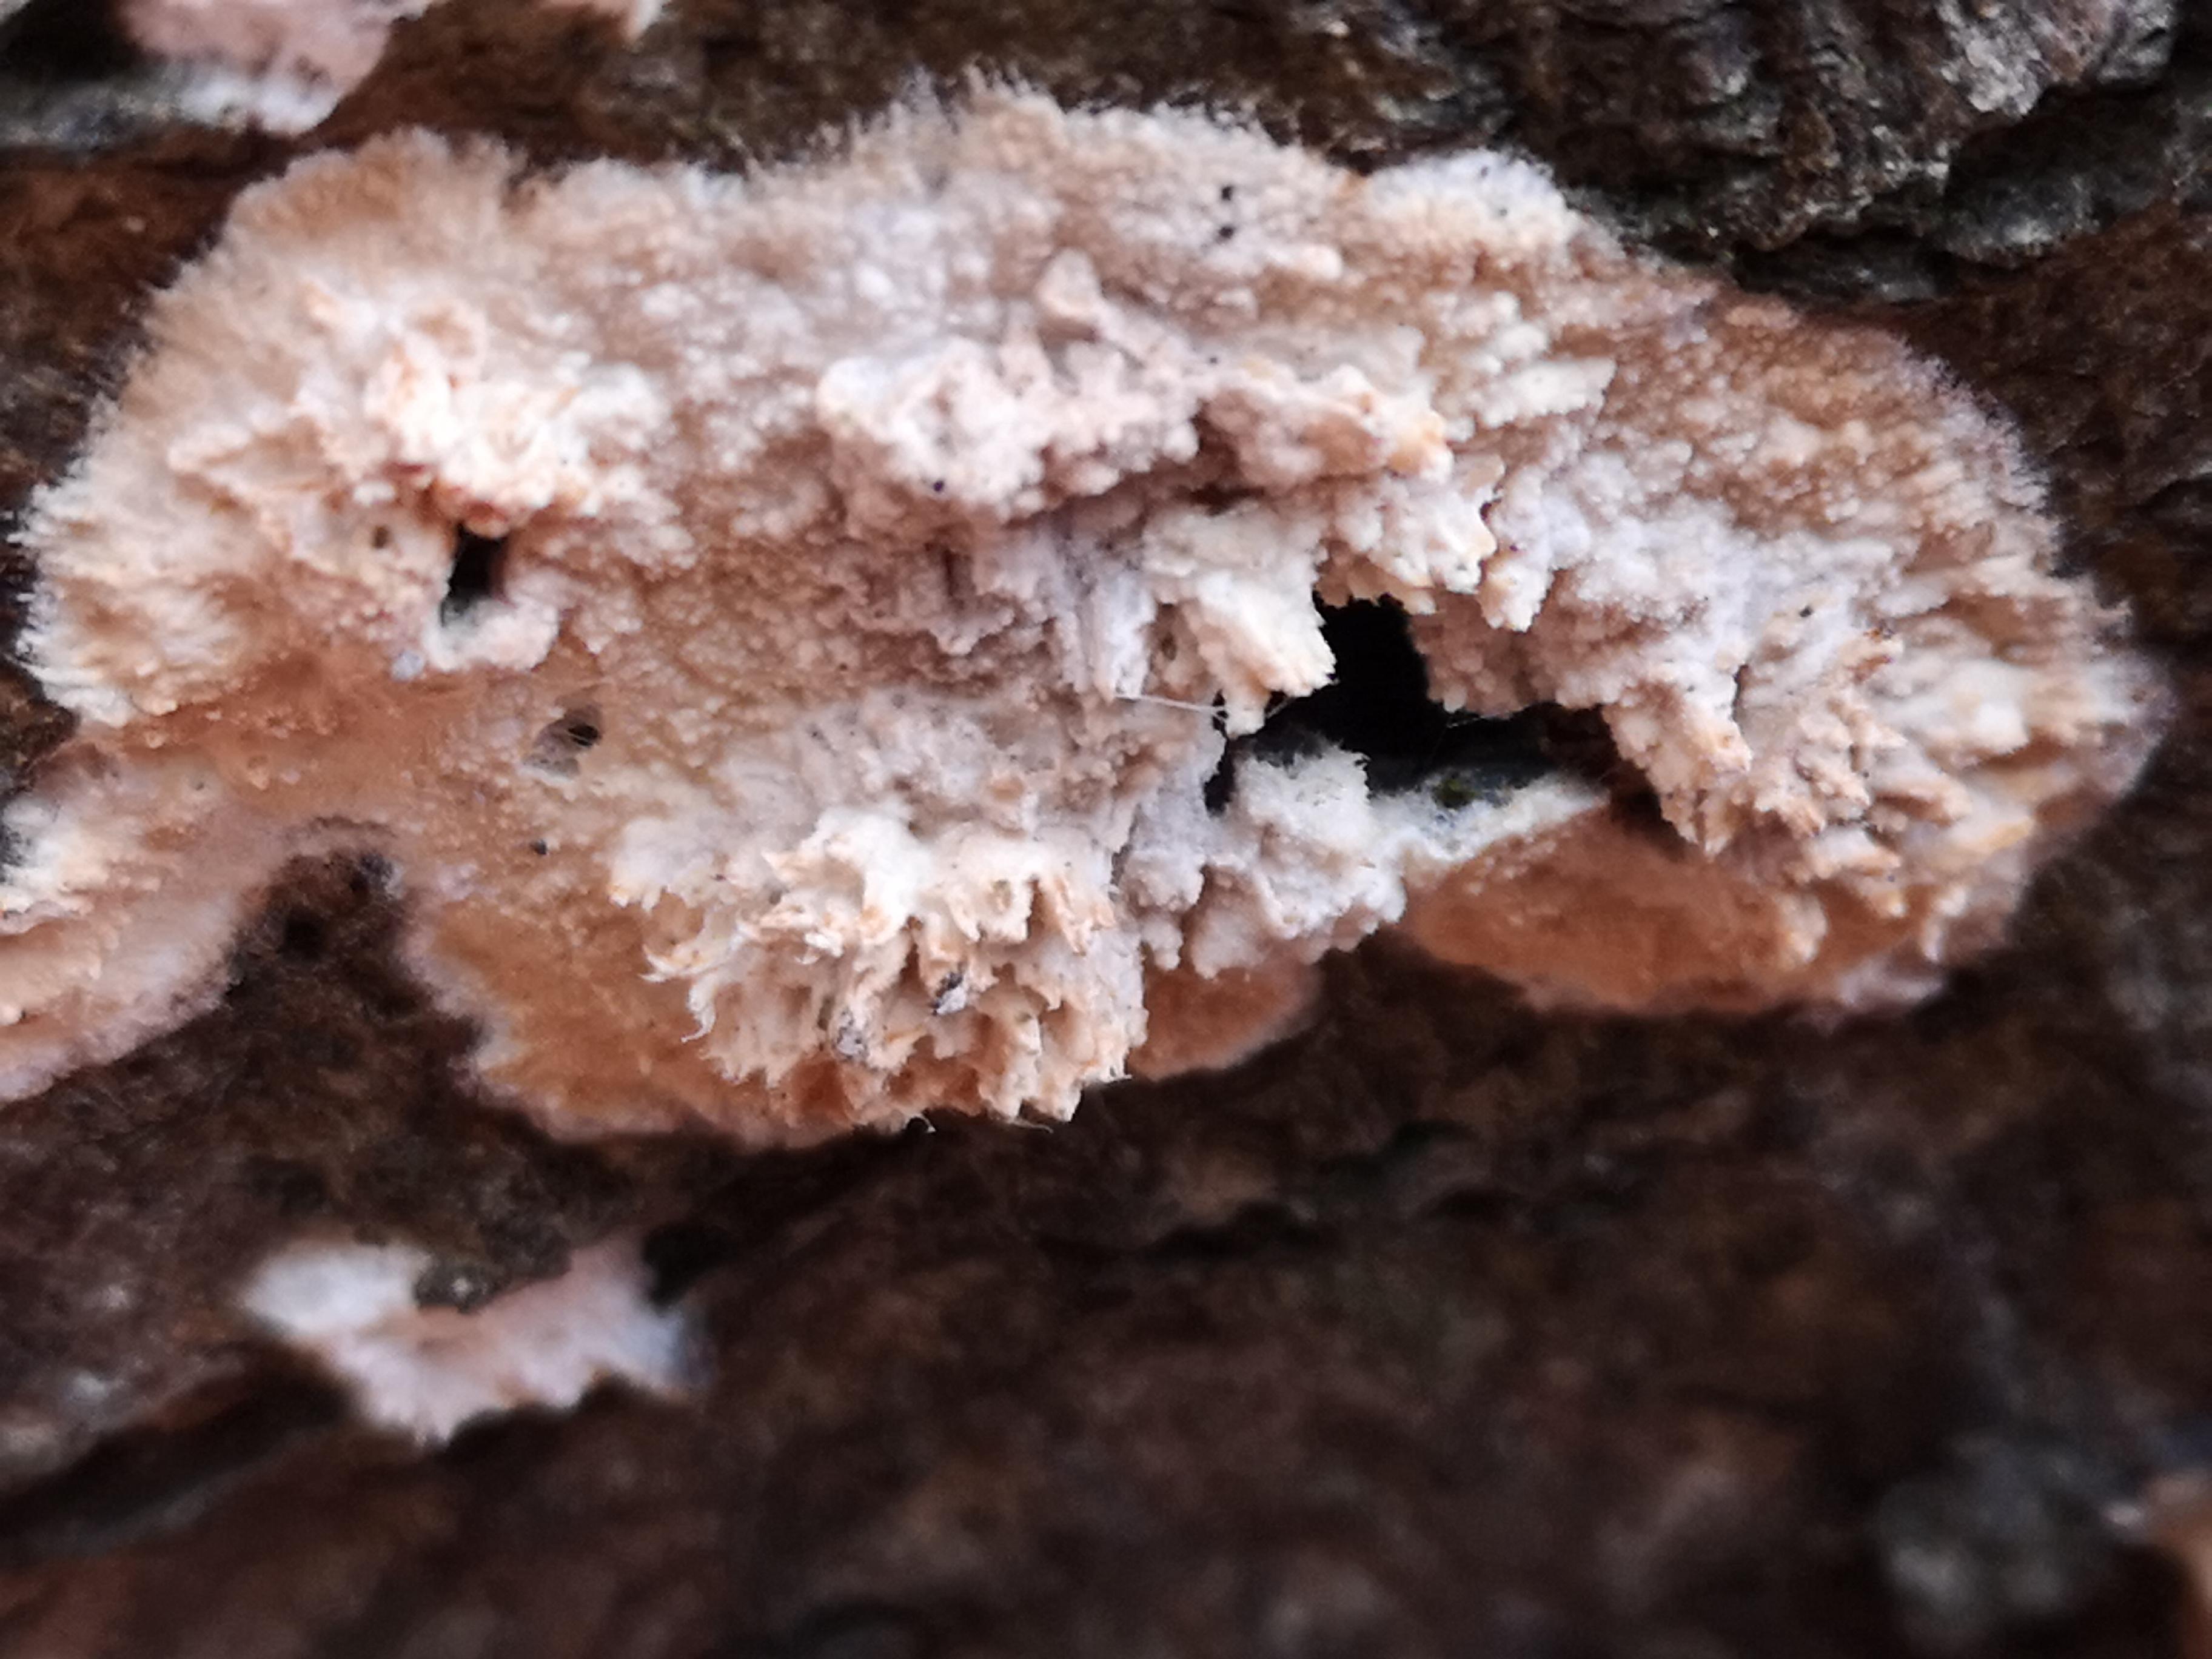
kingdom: Fungi
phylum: Basidiomycota
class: Agaricomycetes
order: Corticiales
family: Corticiaceae
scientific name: Corticiaceae
